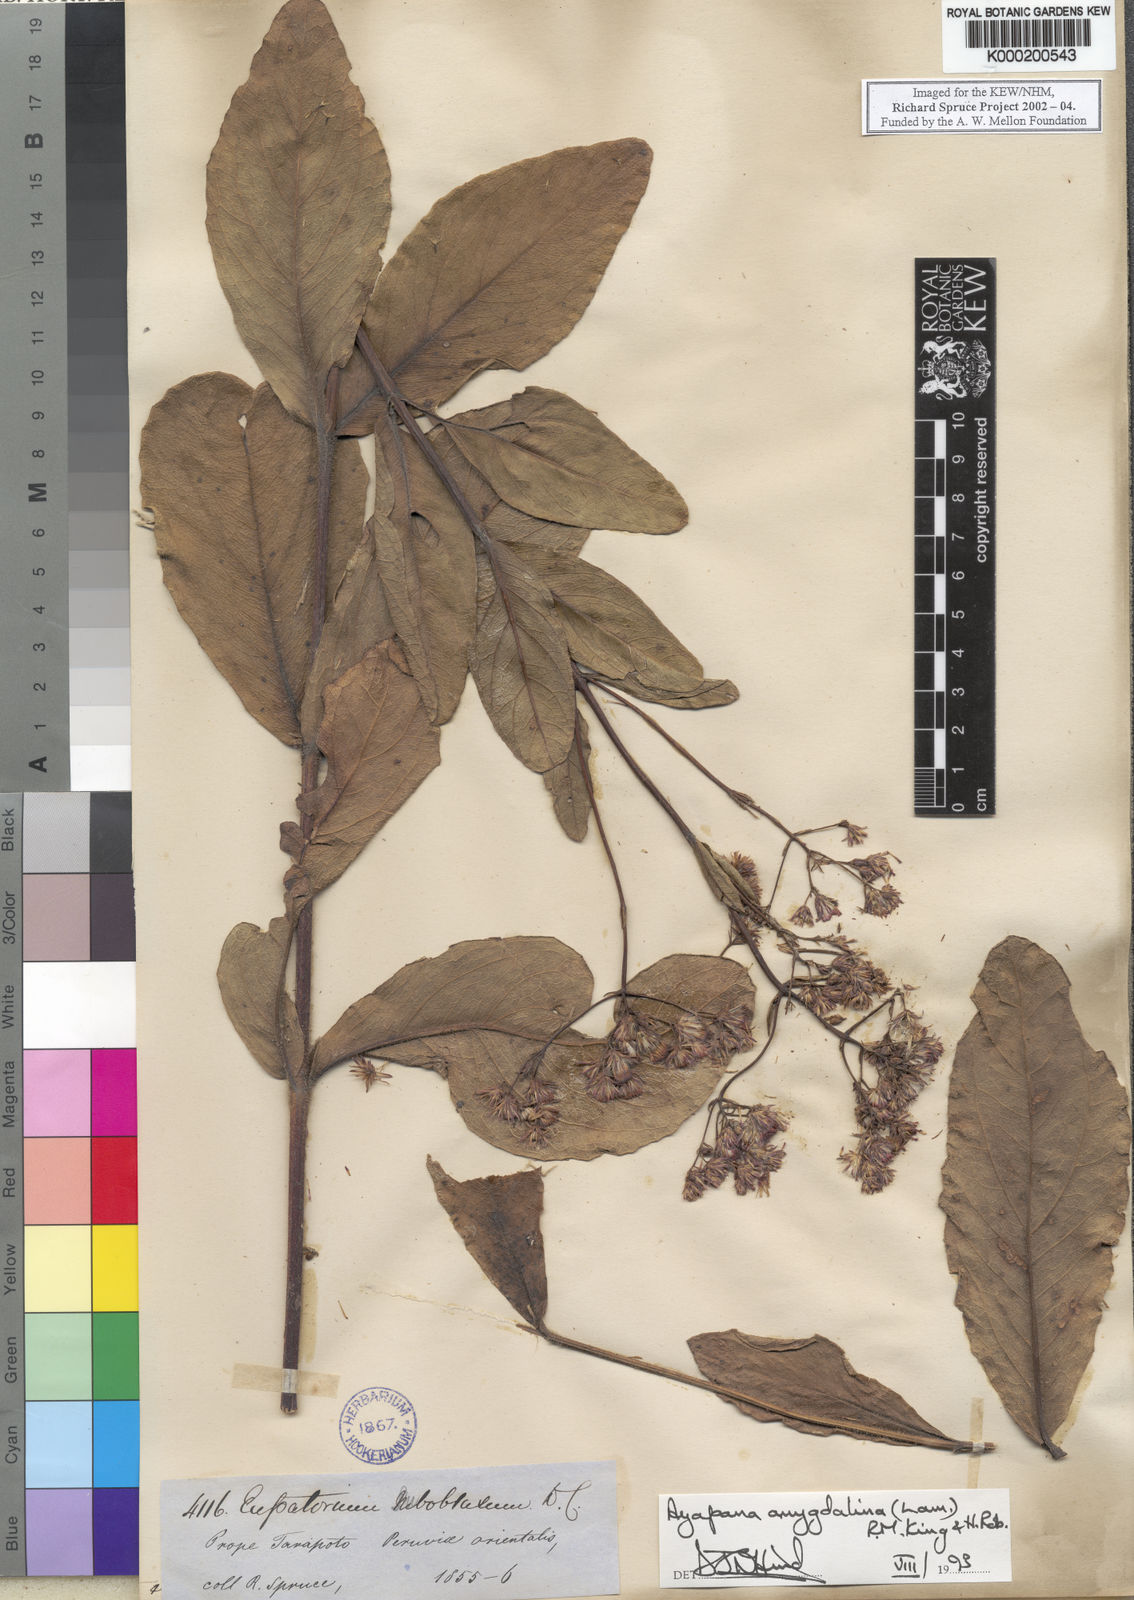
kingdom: Plantae
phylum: Tracheophyta
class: Magnoliopsida
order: Asterales
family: Asteraceae
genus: Ayapana
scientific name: Ayapana amygdalina
